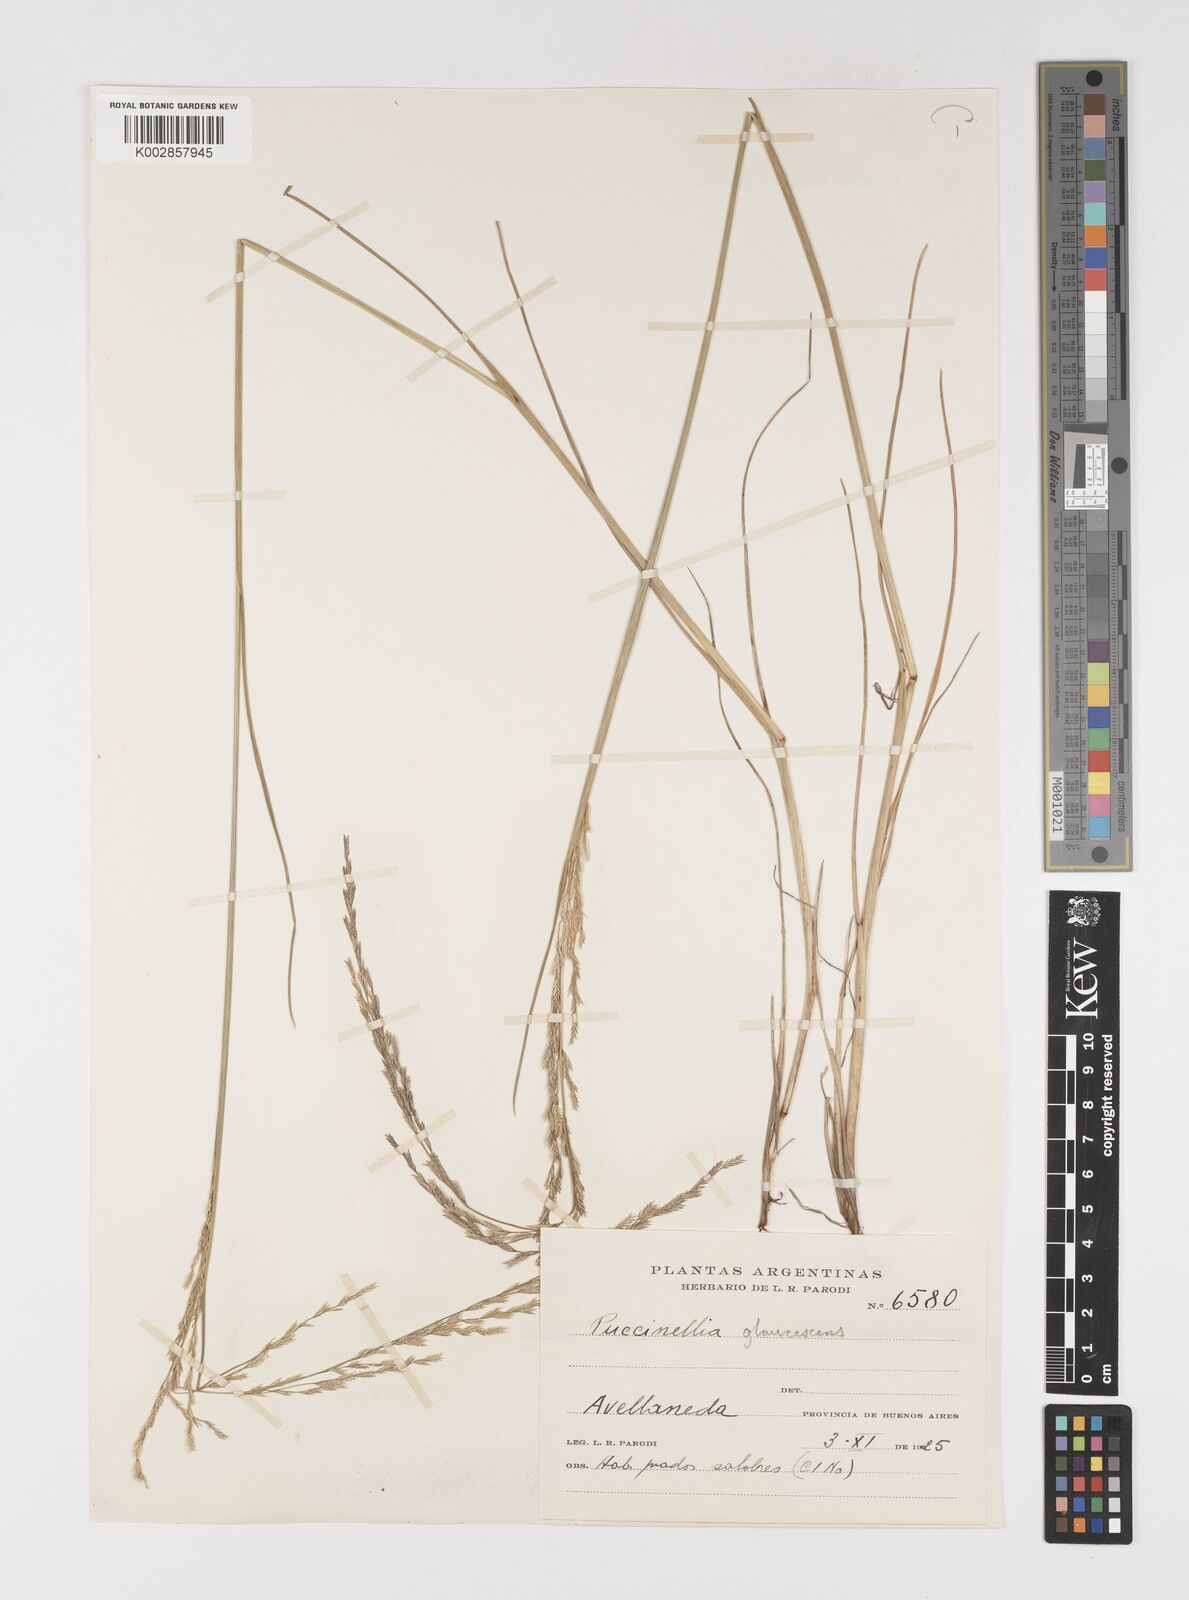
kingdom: Plantae
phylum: Tracheophyta
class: Liliopsida
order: Poales
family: Poaceae
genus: Puccinellia
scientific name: Puccinellia glaucescens
